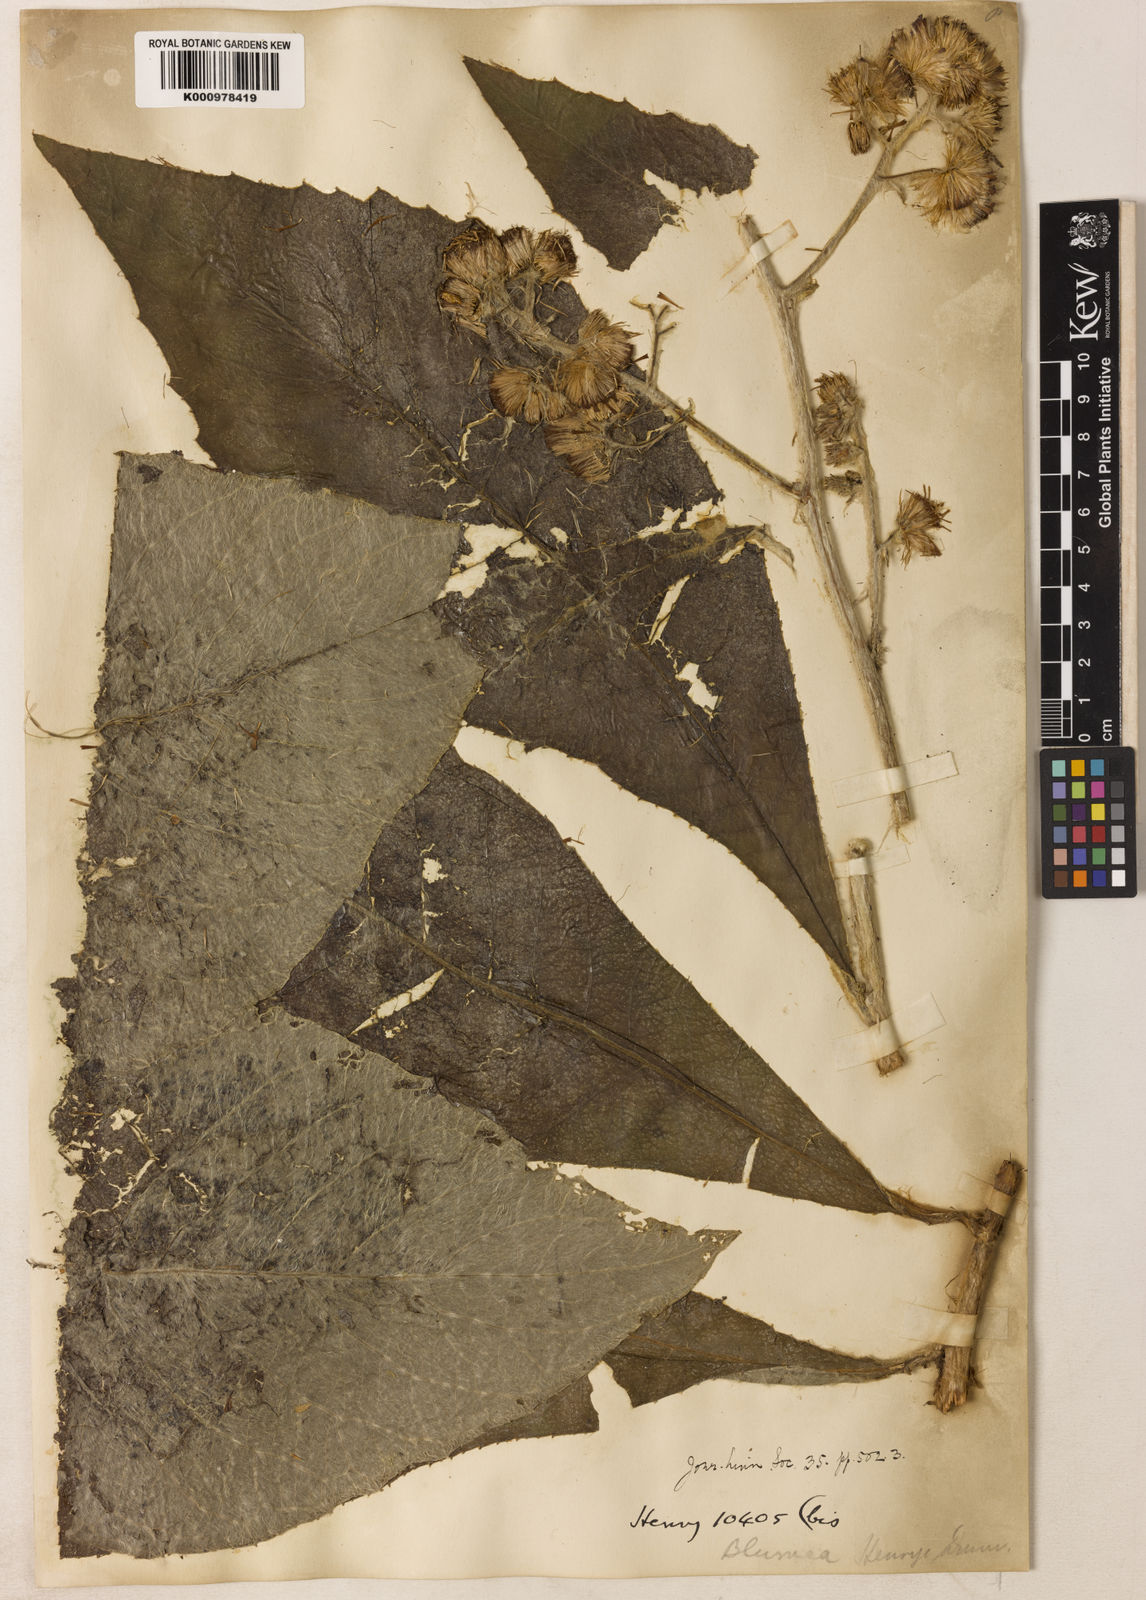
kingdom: Plantae
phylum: Tracheophyta
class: Magnoliopsida
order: Asterales
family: Asteraceae
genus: Blumea
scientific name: Blumea martiniana
